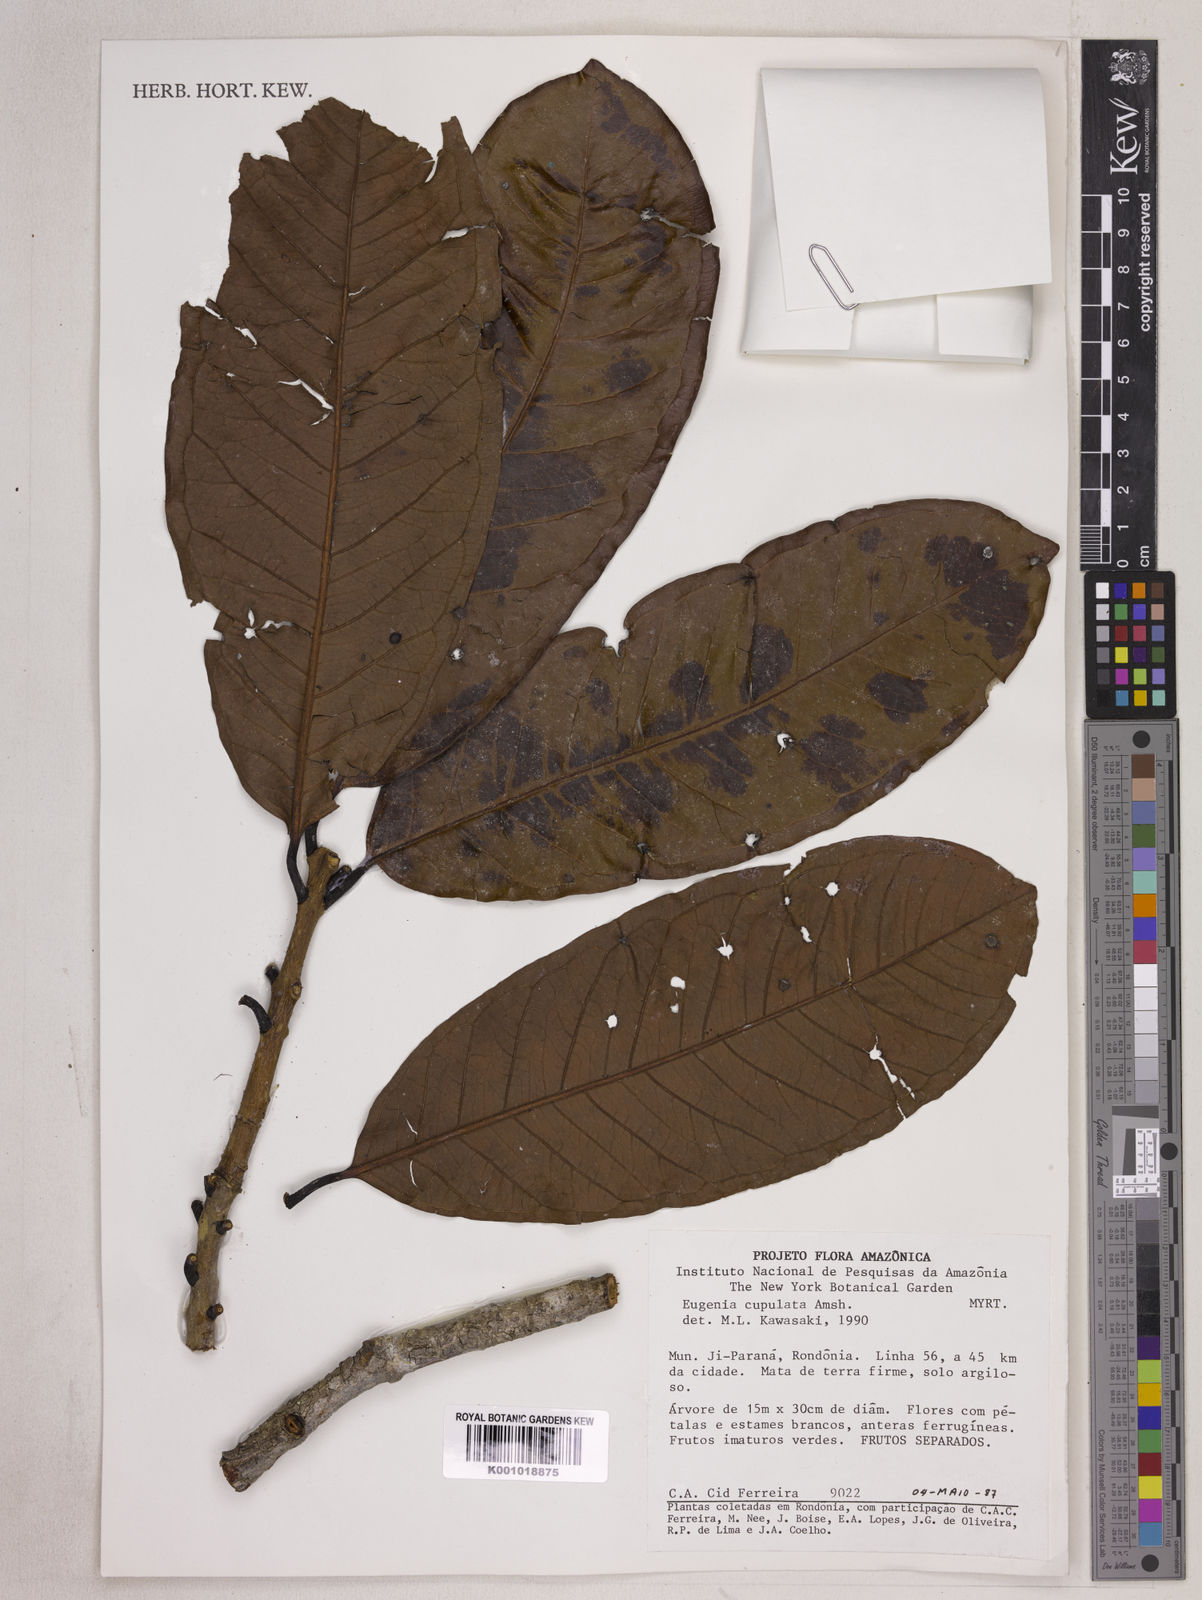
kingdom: Plantae
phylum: Tracheophyta
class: Magnoliopsida
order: Myrtales
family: Myrtaceae
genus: Eugenia
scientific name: Eugenia cupulata
